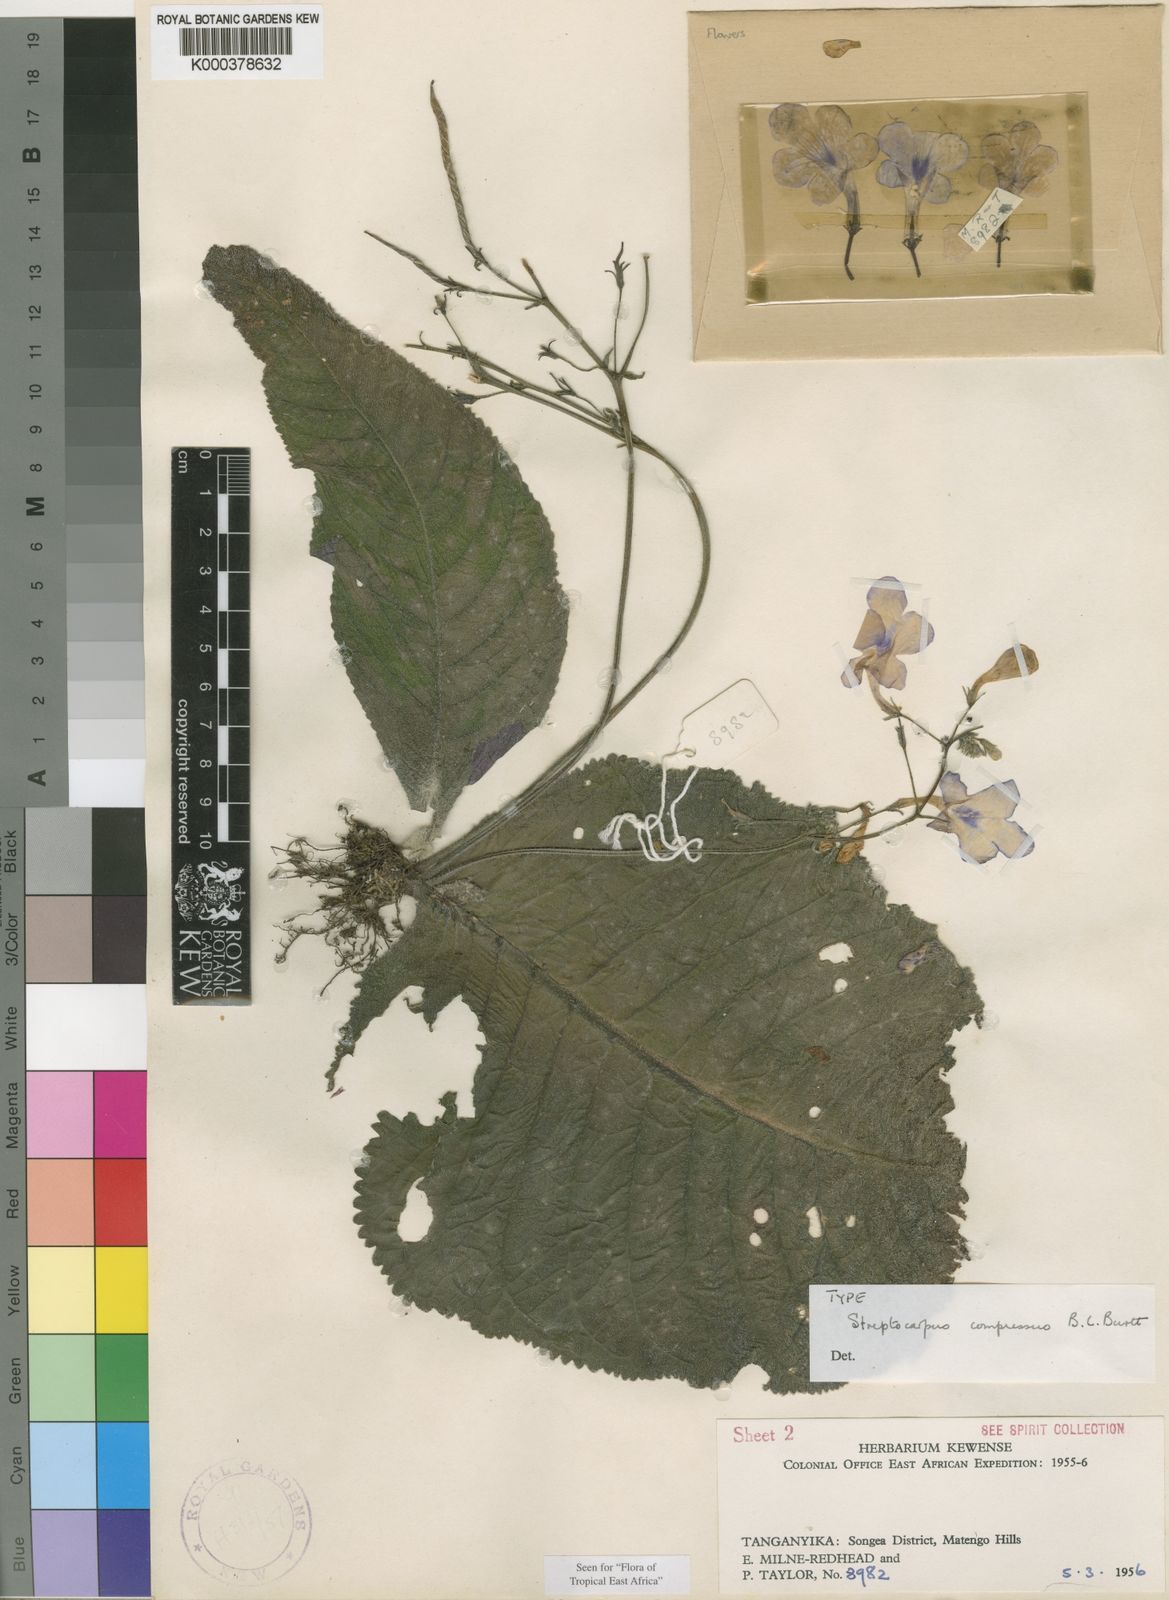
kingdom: Plantae
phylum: Tracheophyta
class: Magnoliopsida
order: Lamiales
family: Gesneriaceae
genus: Streptocarpus
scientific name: Streptocarpus compressus
